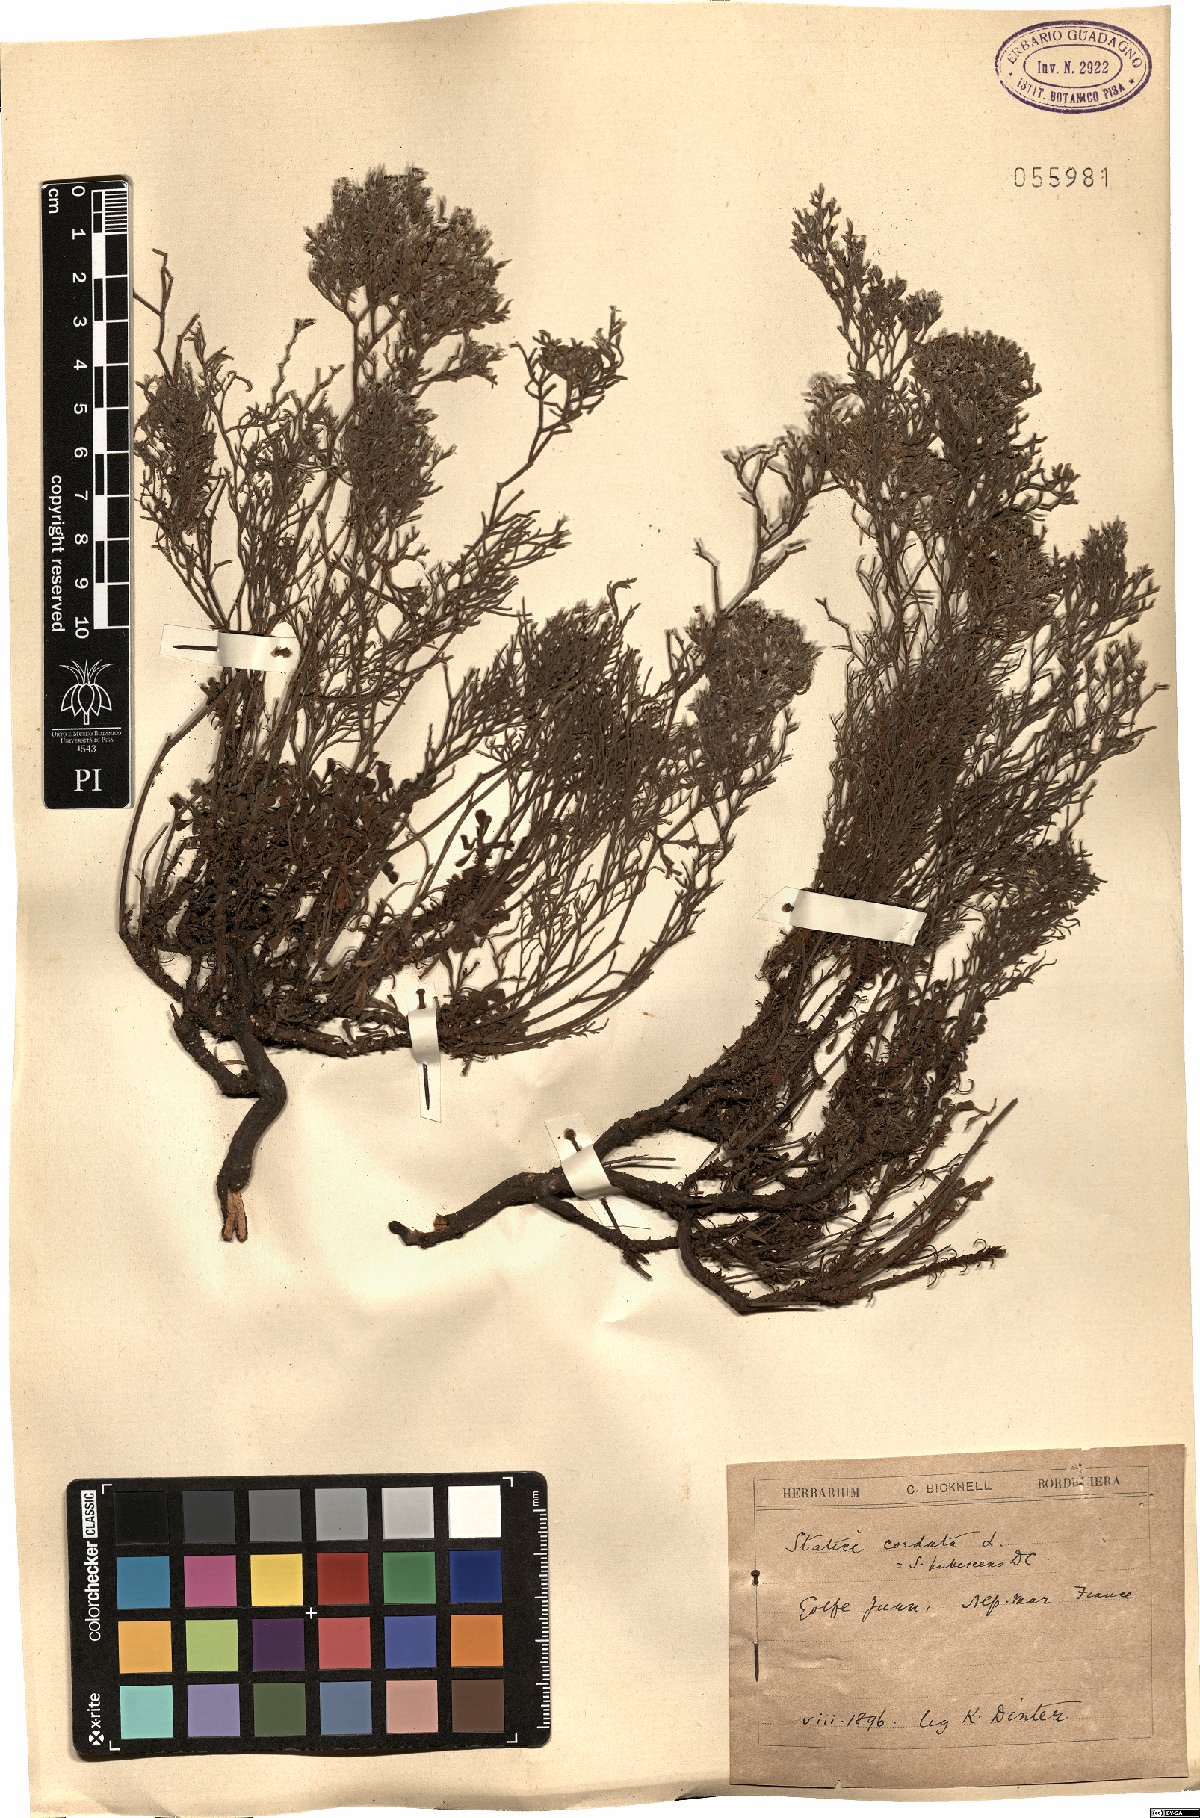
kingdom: Plantae
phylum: Tracheophyta
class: Magnoliopsida
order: Caryophyllales
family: Plumbaginaceae
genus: Limonium
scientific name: Limonium cordatum
